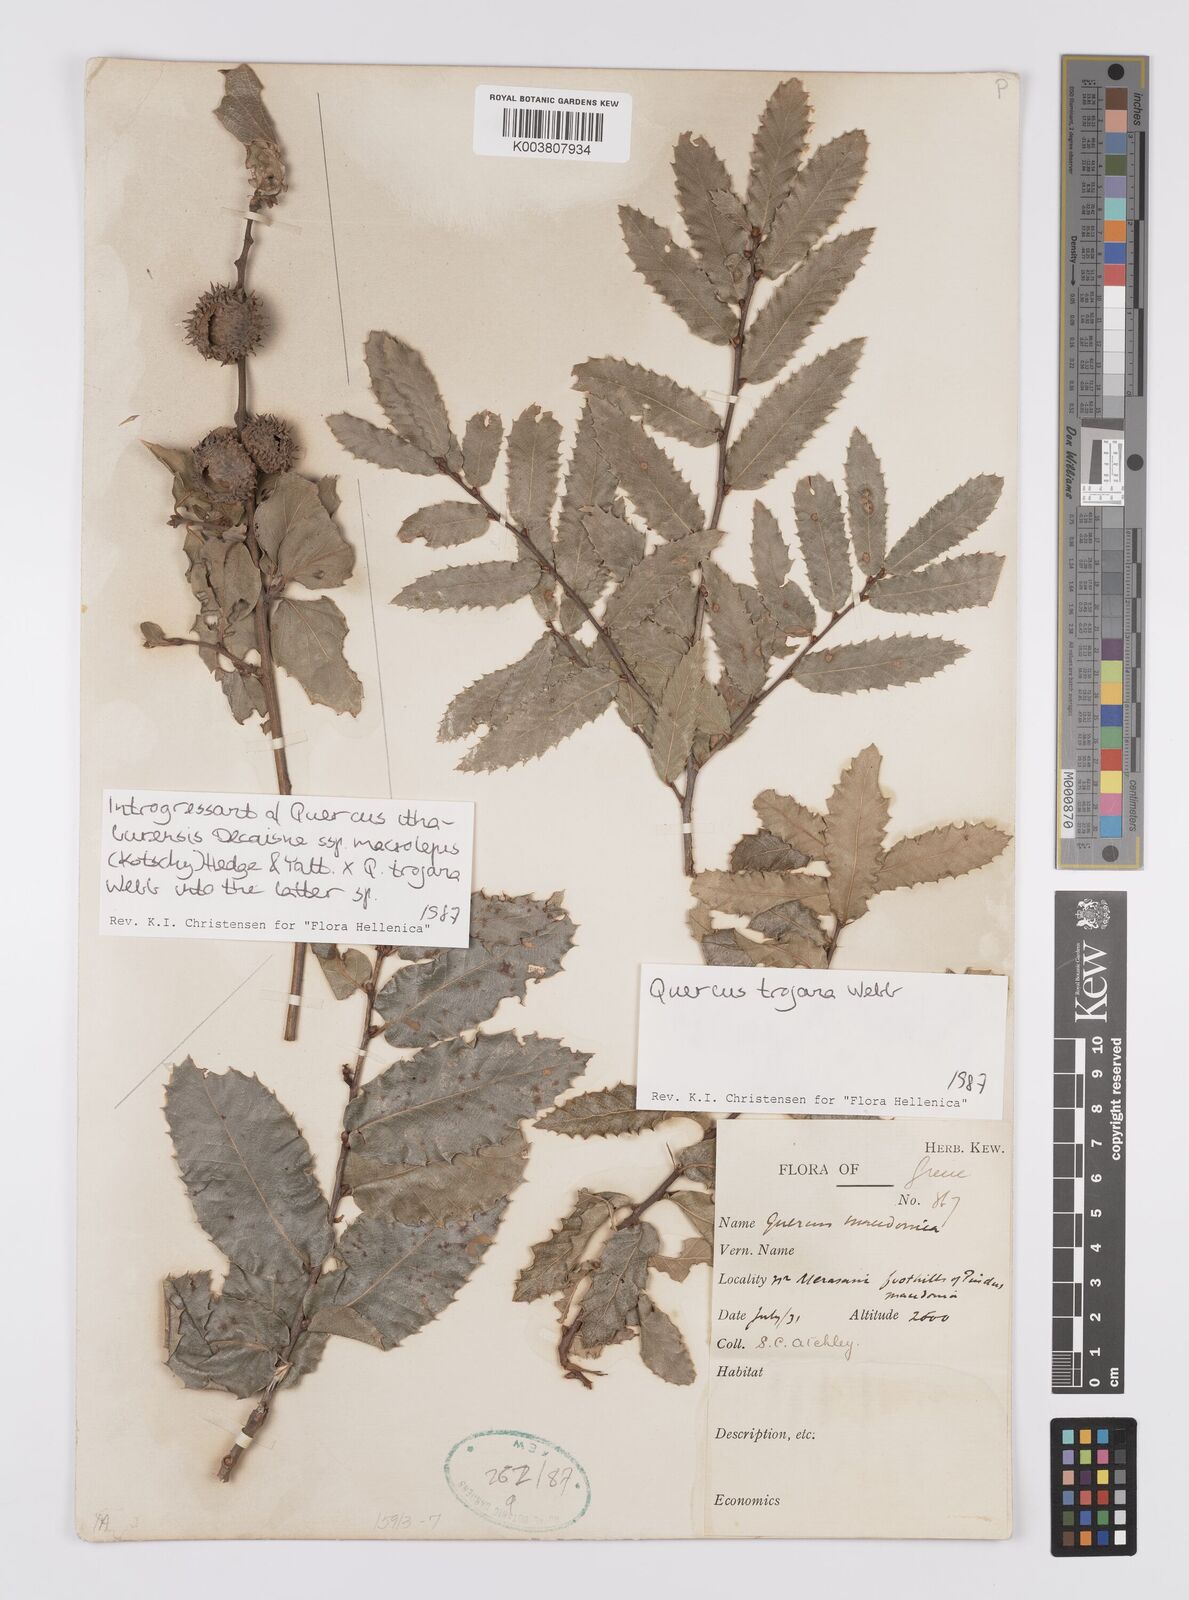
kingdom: Plantae
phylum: Tracheophyta
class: Magnoliopsida
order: Fagales
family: Fagaceae
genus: Quercus
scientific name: Quercus trojana
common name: Macedonian oak
